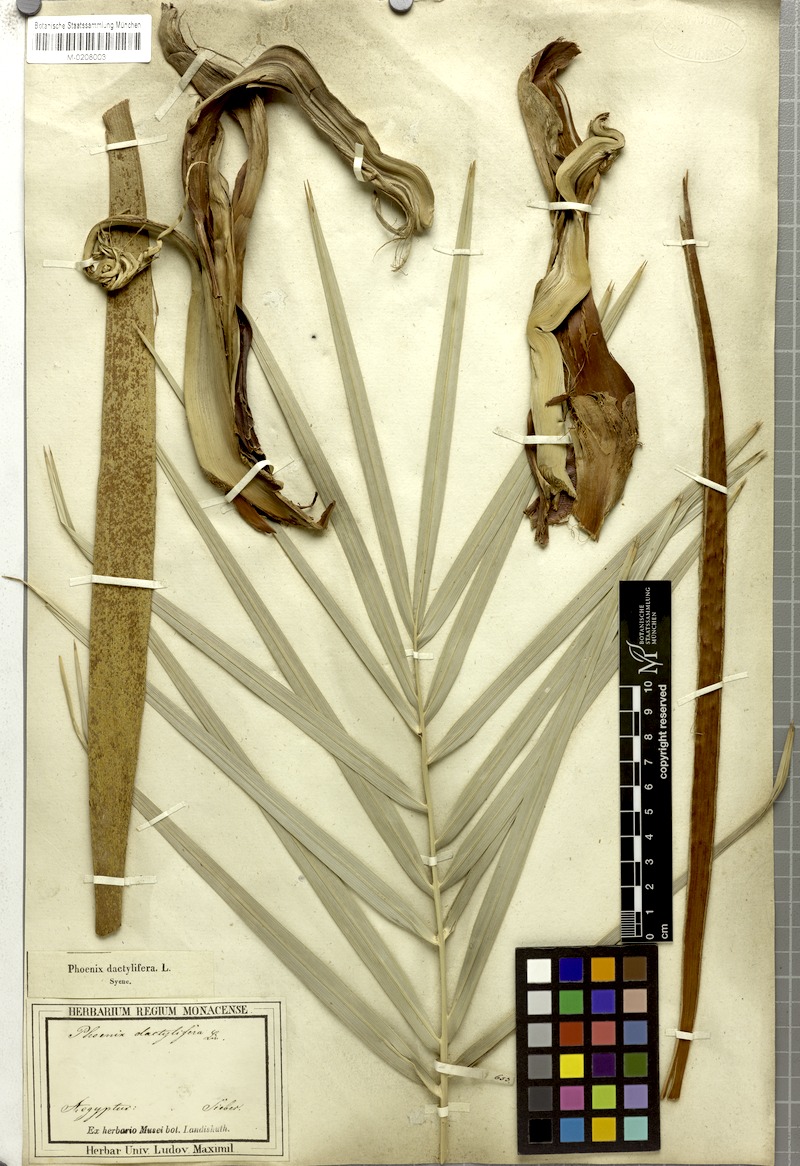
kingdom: Plantae
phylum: Tracheophyta
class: Liliopsida
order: Arecales
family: Arecaceae
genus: Phoenix
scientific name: Phoenix dactylifera
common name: Date palm
